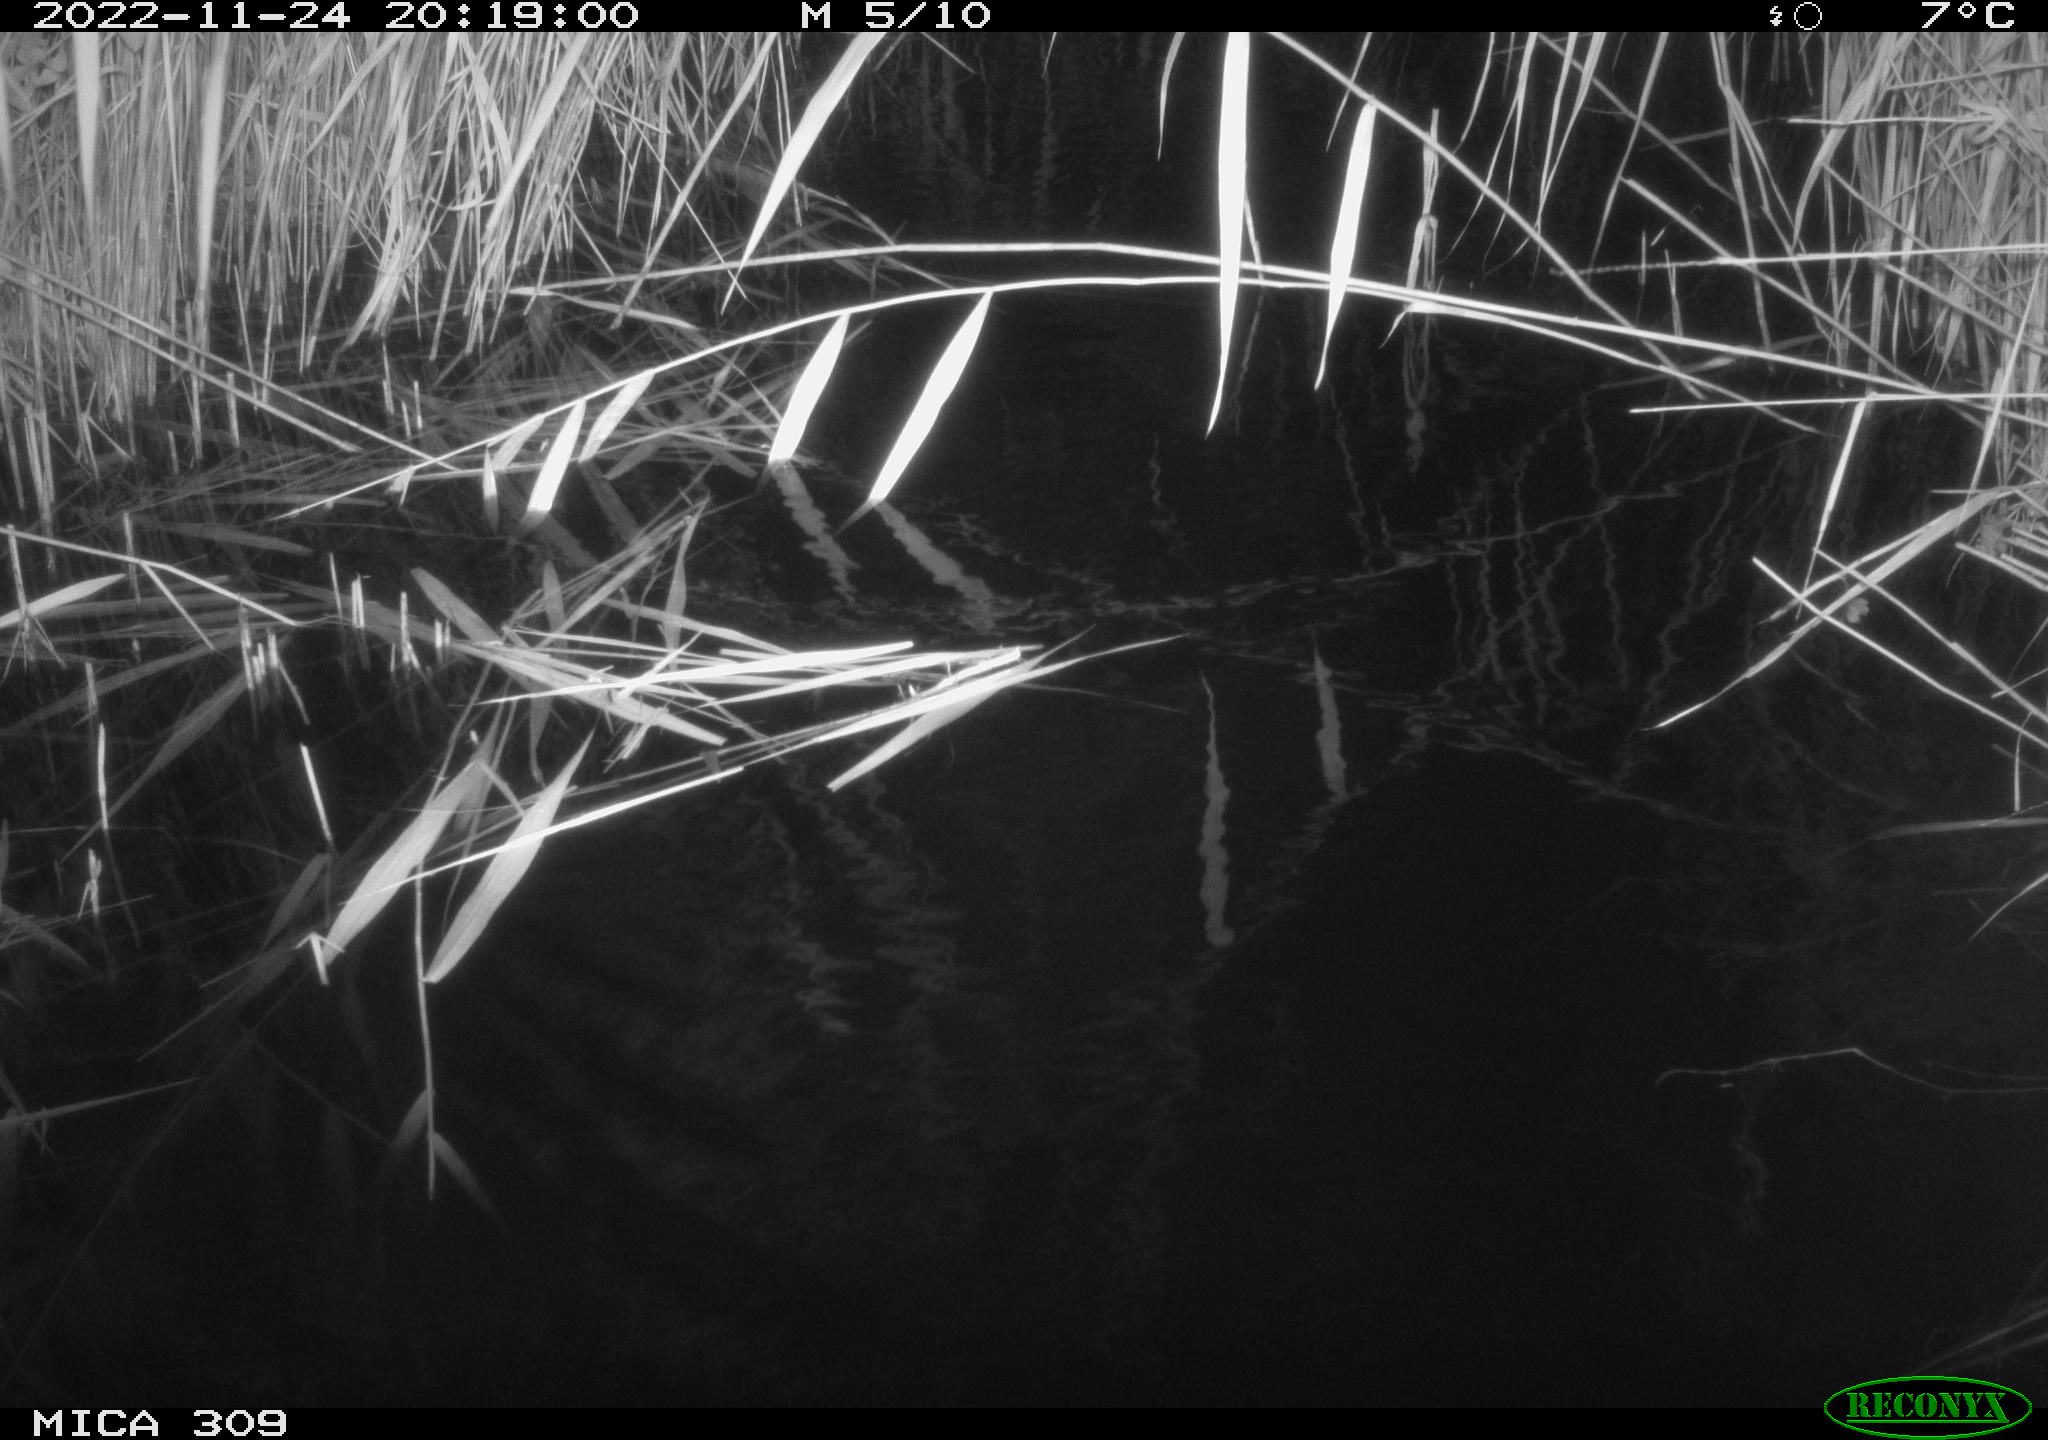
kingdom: Animalia
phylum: Chordata
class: Mammalia
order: Rodentia
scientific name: Rodentia
